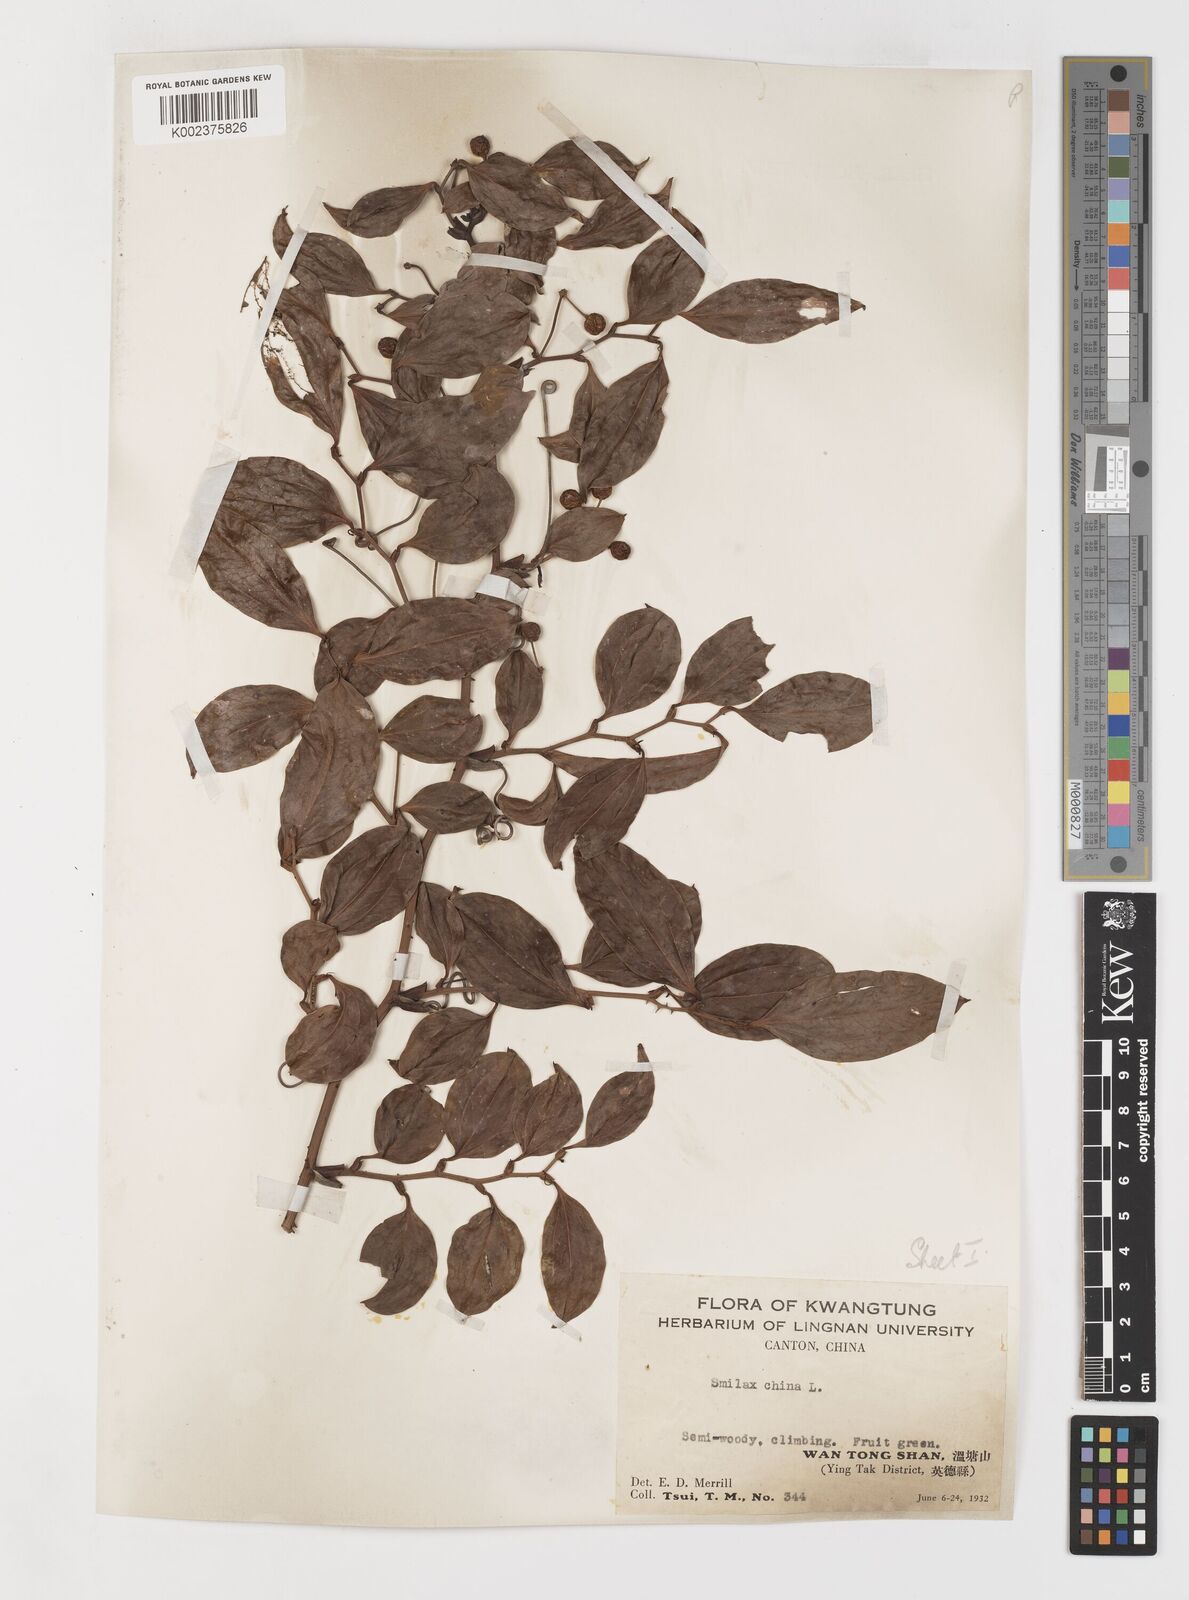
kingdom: Plantae
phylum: Tracheophyta
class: Liliopsida
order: Liliales
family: Smilacaceae
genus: Smilax
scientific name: Smilax china
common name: Chinaroot
